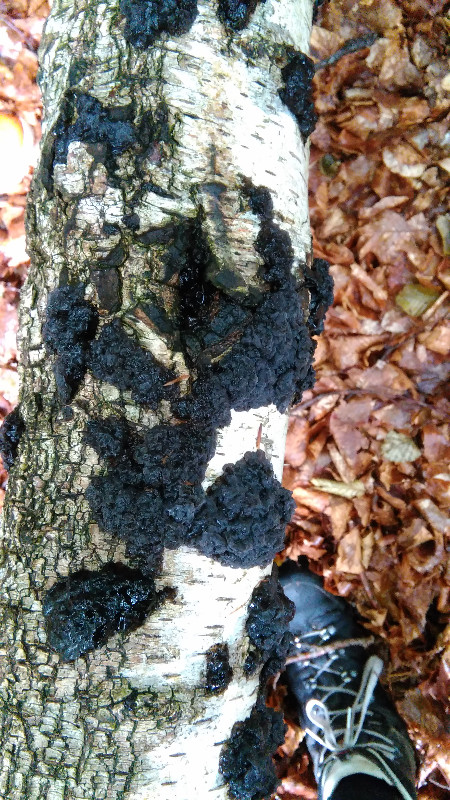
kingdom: Fungi
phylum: Basidiomycota
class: Agaricomycetes
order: Auriculariales
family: Auriculariaceae
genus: Exidia
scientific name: Exidia nigricans
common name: almindelig bævretop
